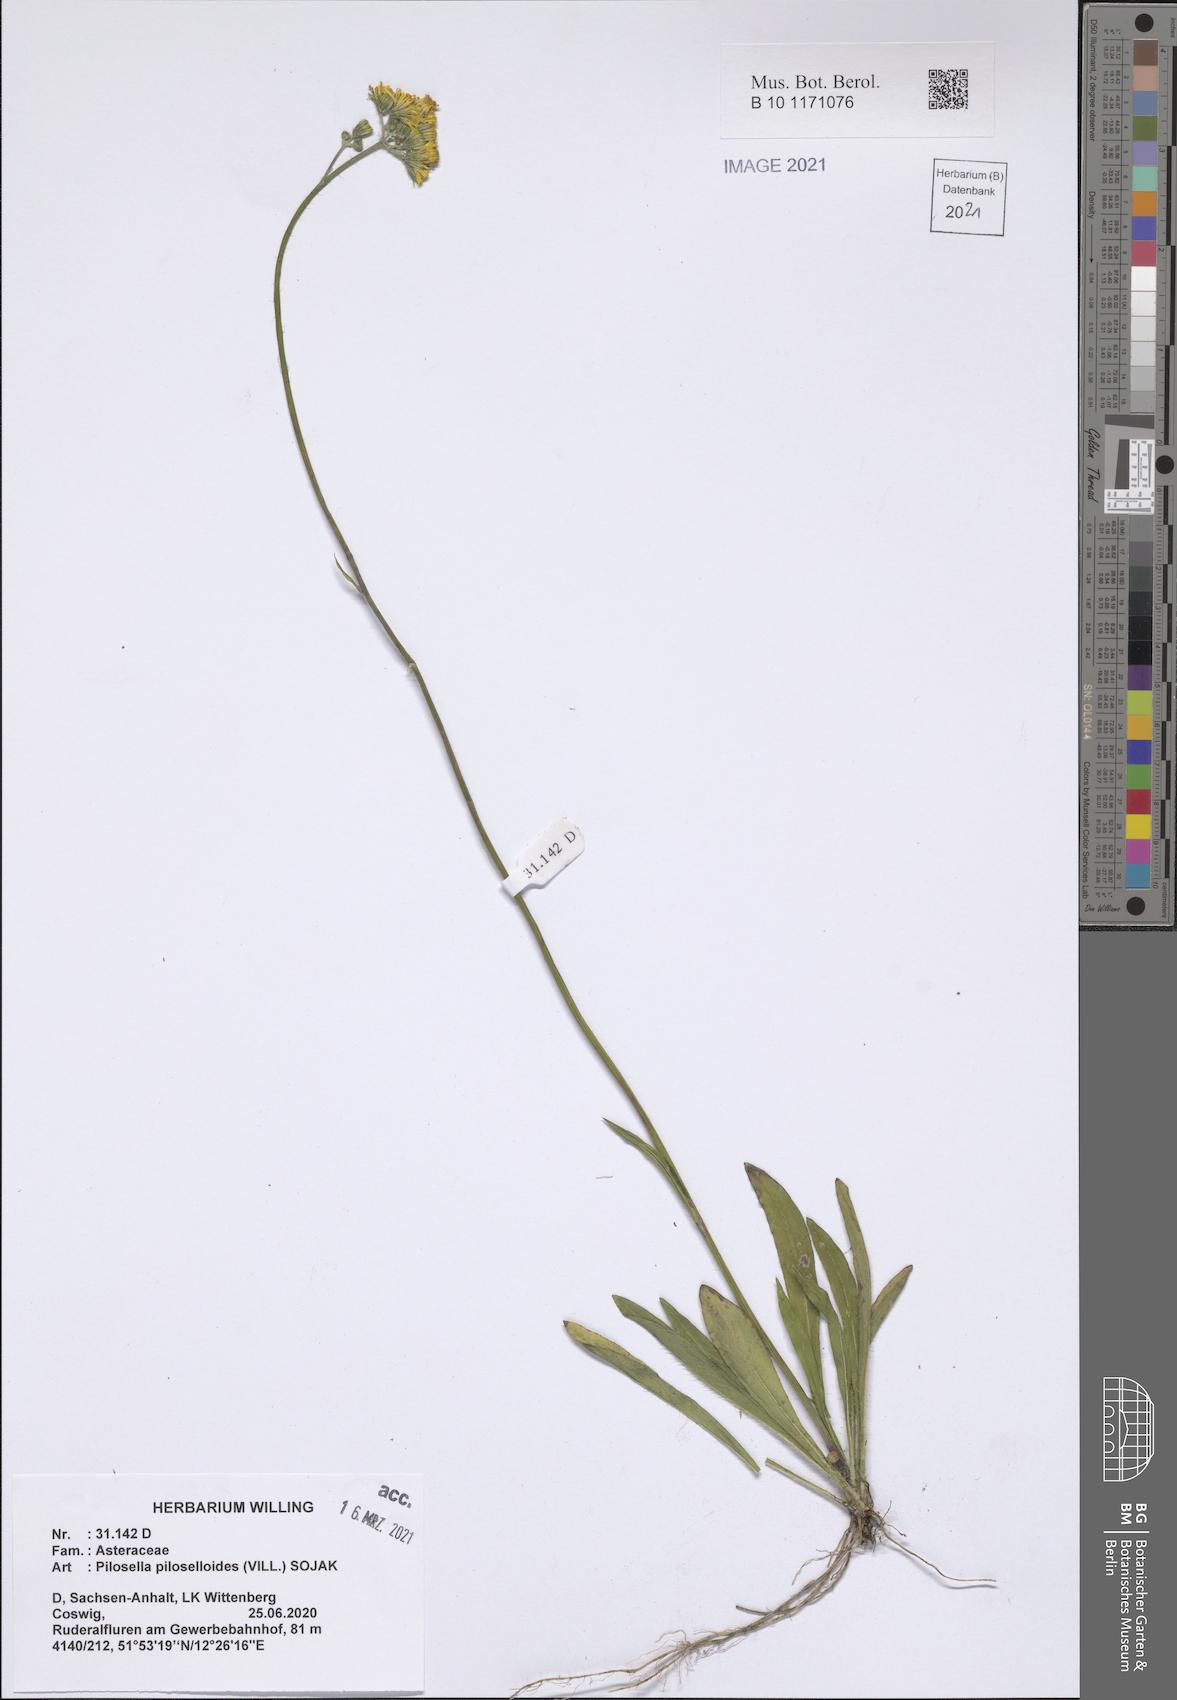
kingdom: Plantae
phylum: Tracheophyta
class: Magnoliopsida
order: Asterales
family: Asteraceae
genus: Pilosella
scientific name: Pilosella piloselloides
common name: Glaucous king-devil
